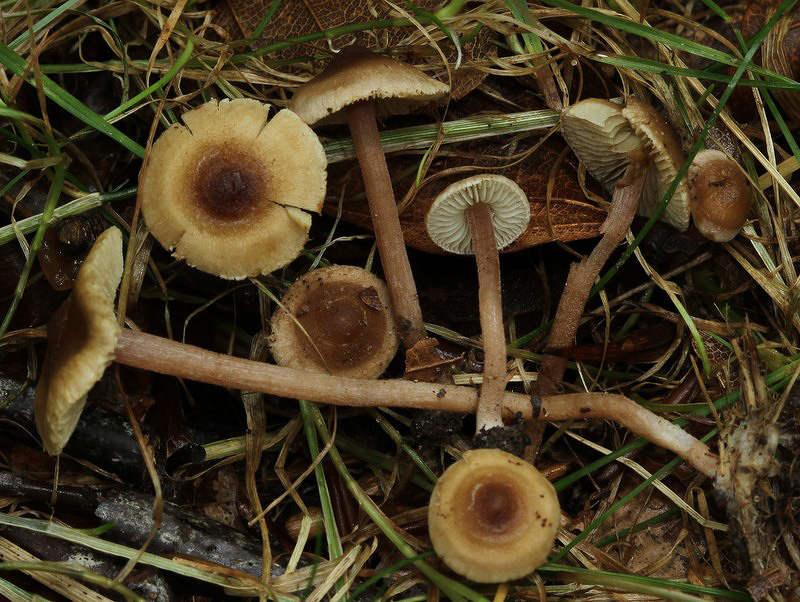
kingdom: Fungi
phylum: Basidiomycota
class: Agaricomycetes
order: Agaricales
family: Inocybaceae
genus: Inocybe
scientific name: Inocybe petiginosa
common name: liden trævlhat
